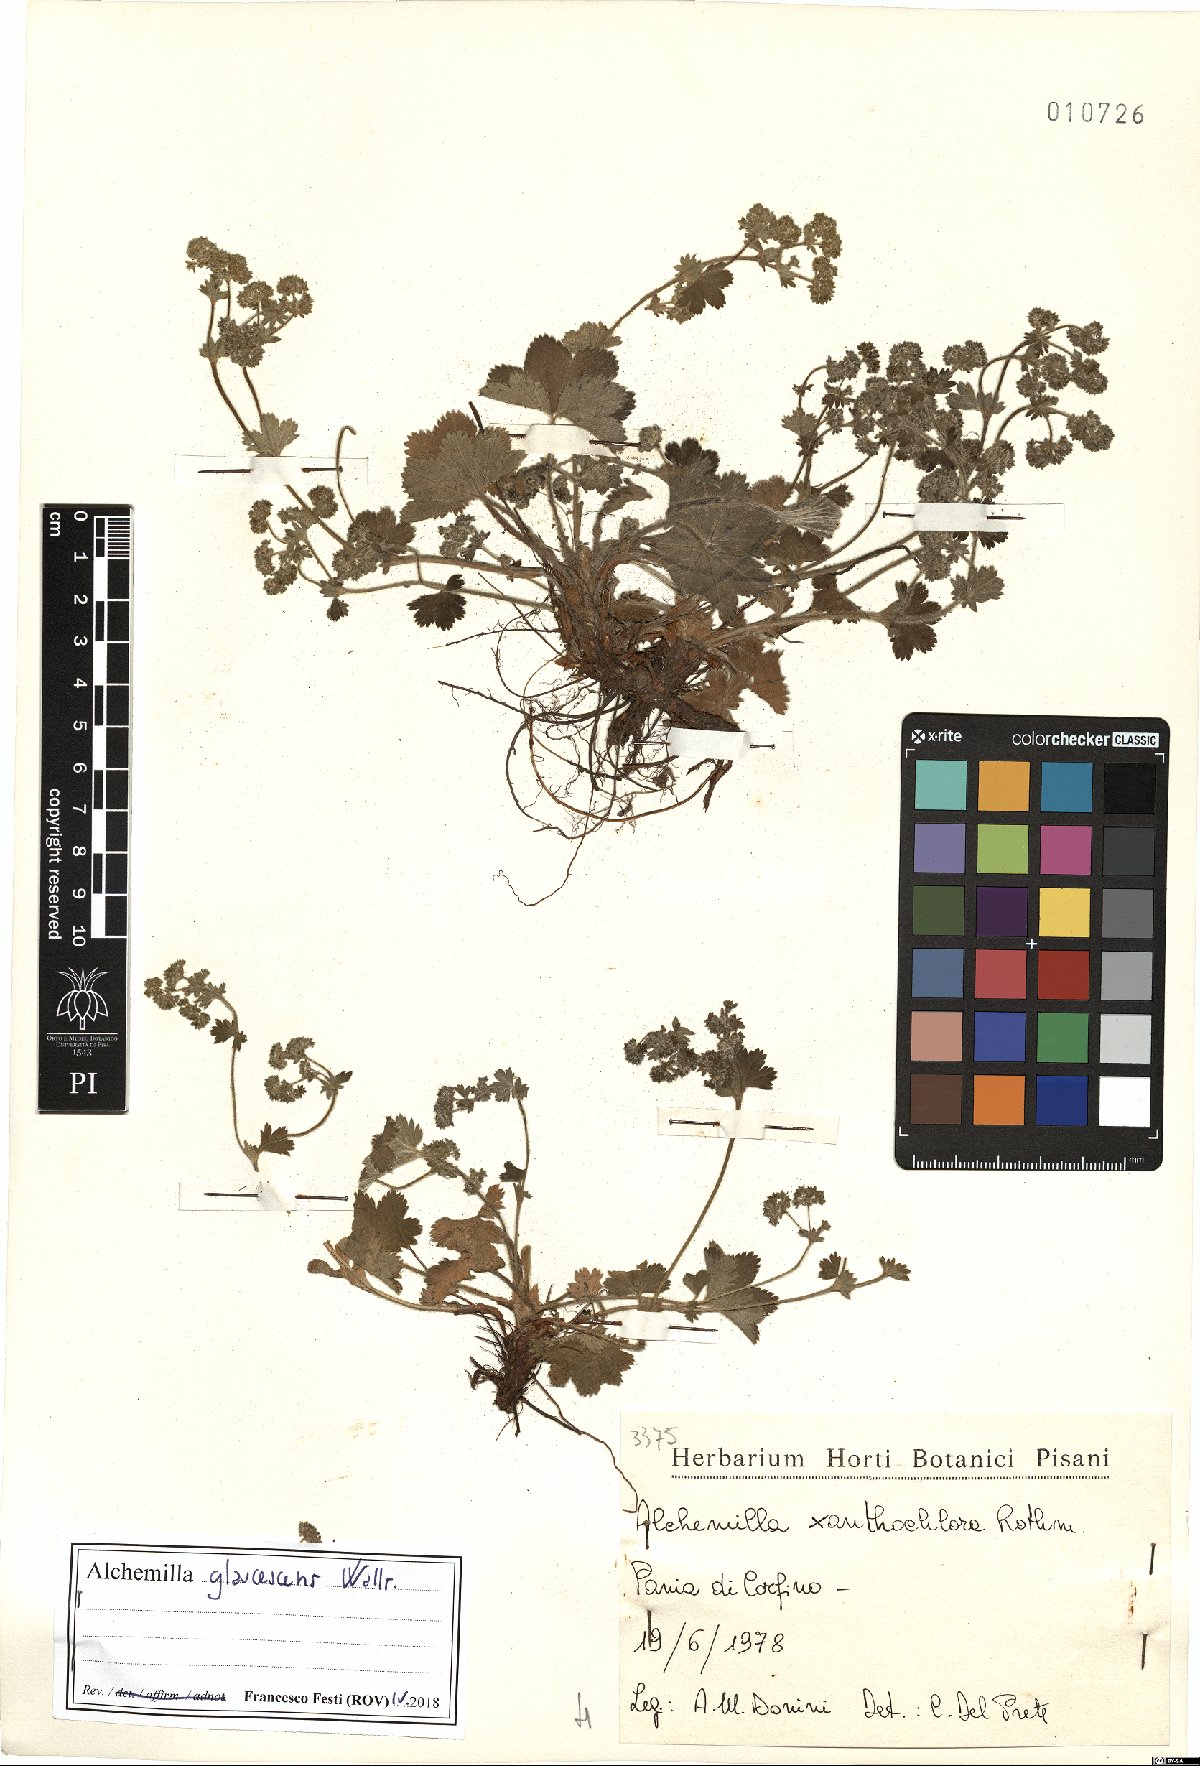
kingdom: Plantae
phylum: Tracheophyta
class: Magnoliopsida
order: Rosales
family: Rosaceae
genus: Alchemilla
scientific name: Alchemilla glaucescens
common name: Silky lady's mantle
